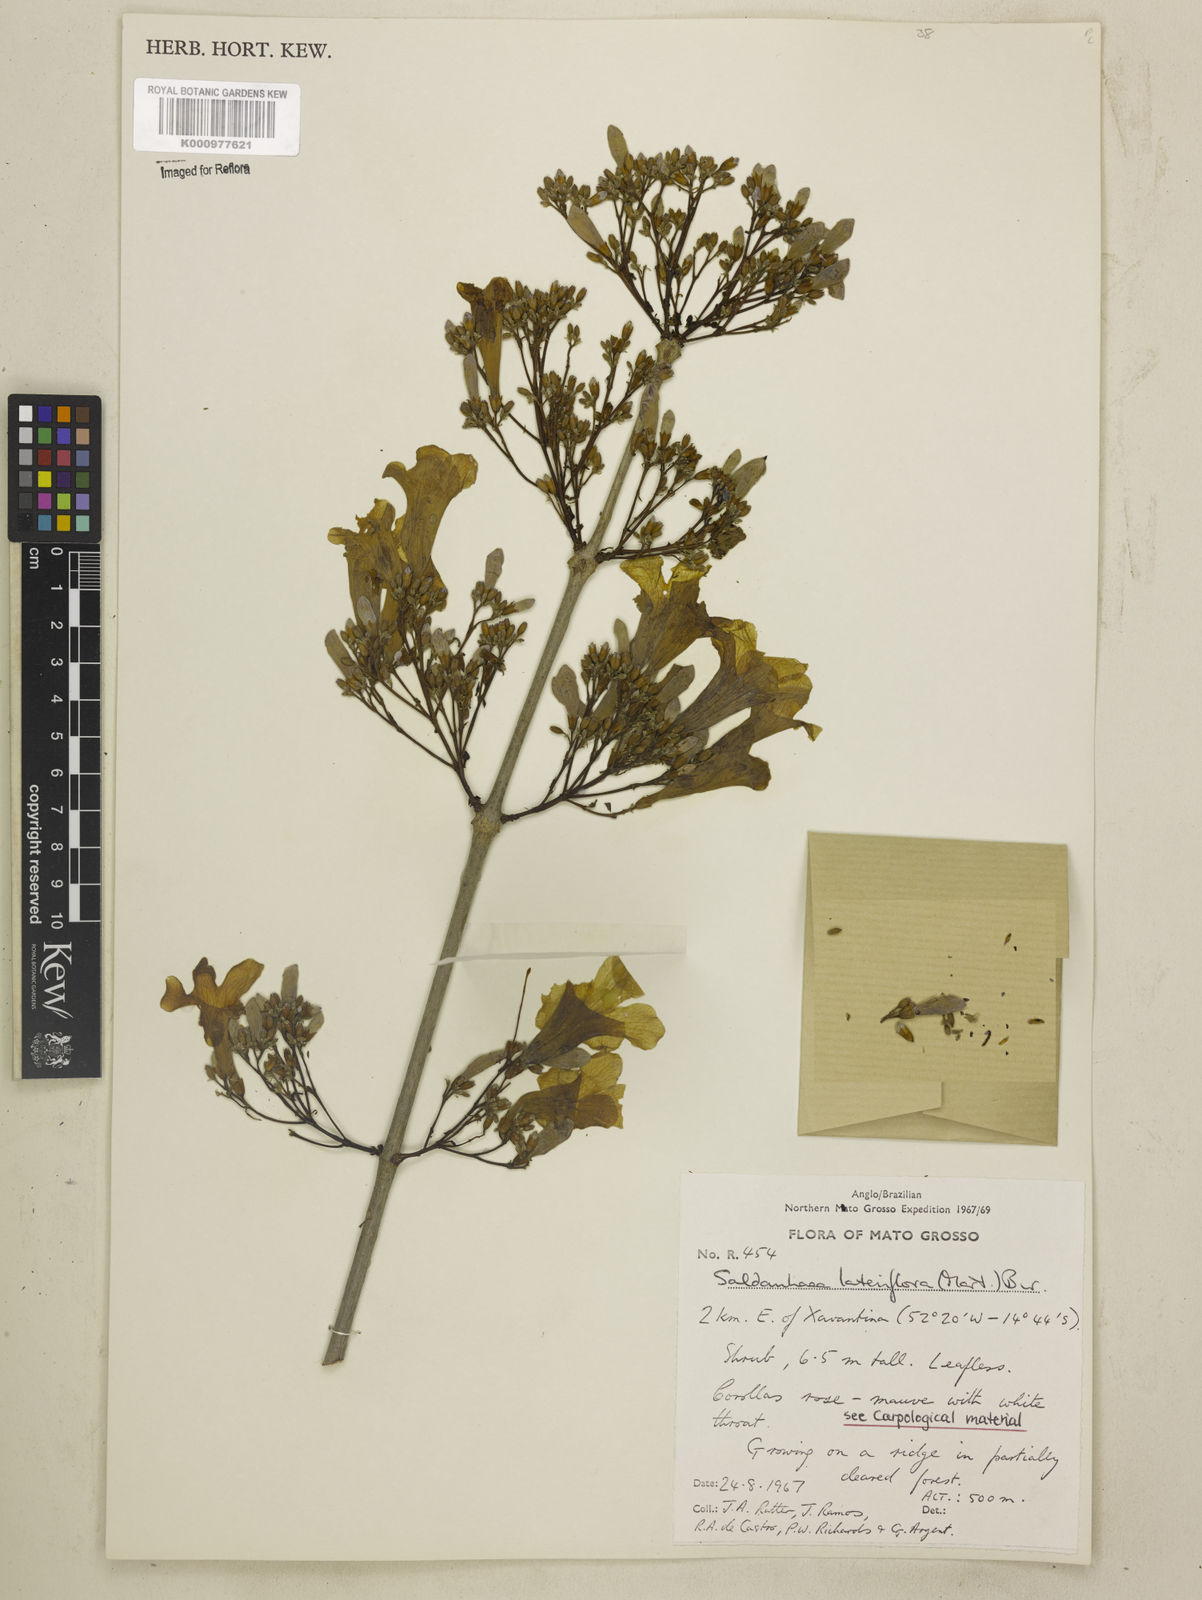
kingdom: Plantae
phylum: Tracheophyta
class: Magnoliopsida
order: Lamiales
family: Bignoniaceae
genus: Cuspidaria
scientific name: Cuspidaria lateriflora
